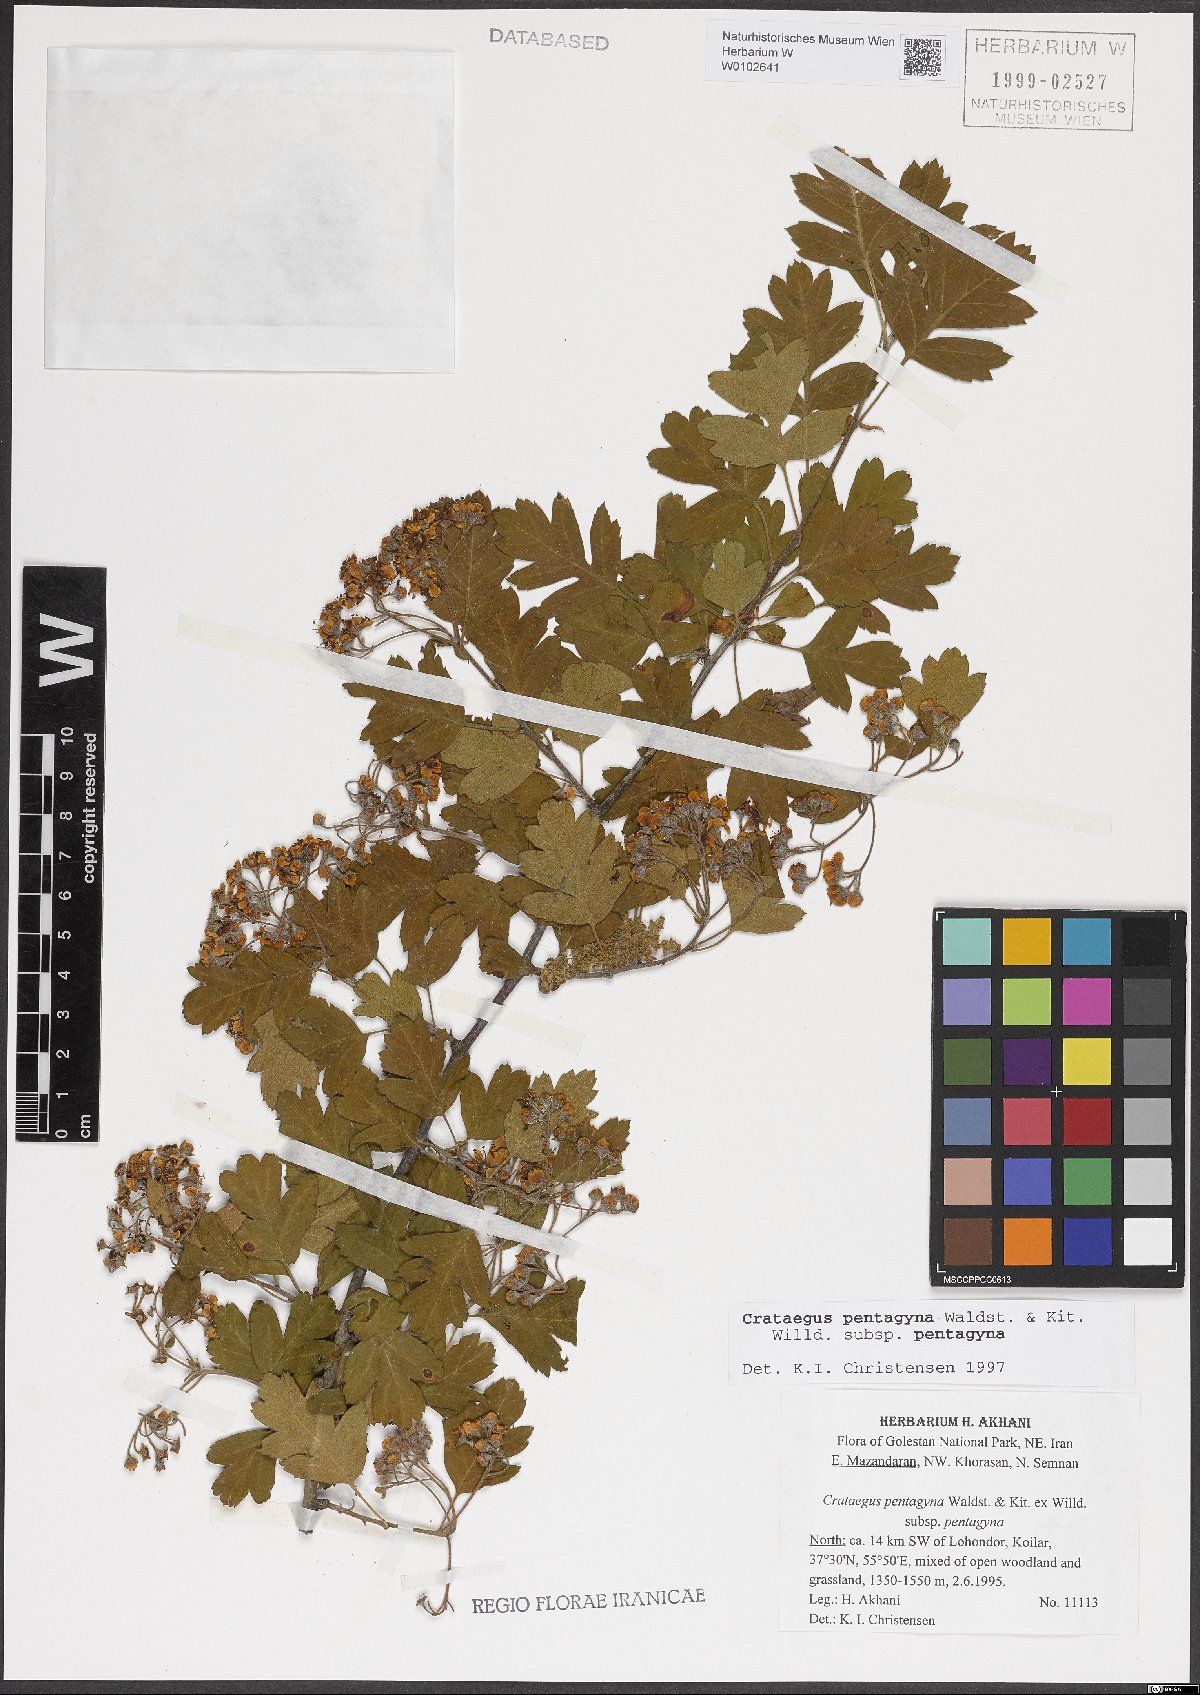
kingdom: Plantae
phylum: Tracheophyta
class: Magnoliopsida
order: Rosales
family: Rosaceae
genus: Crataegus
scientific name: Crataegus pentagyna
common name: Small-flowered black hawthorn
